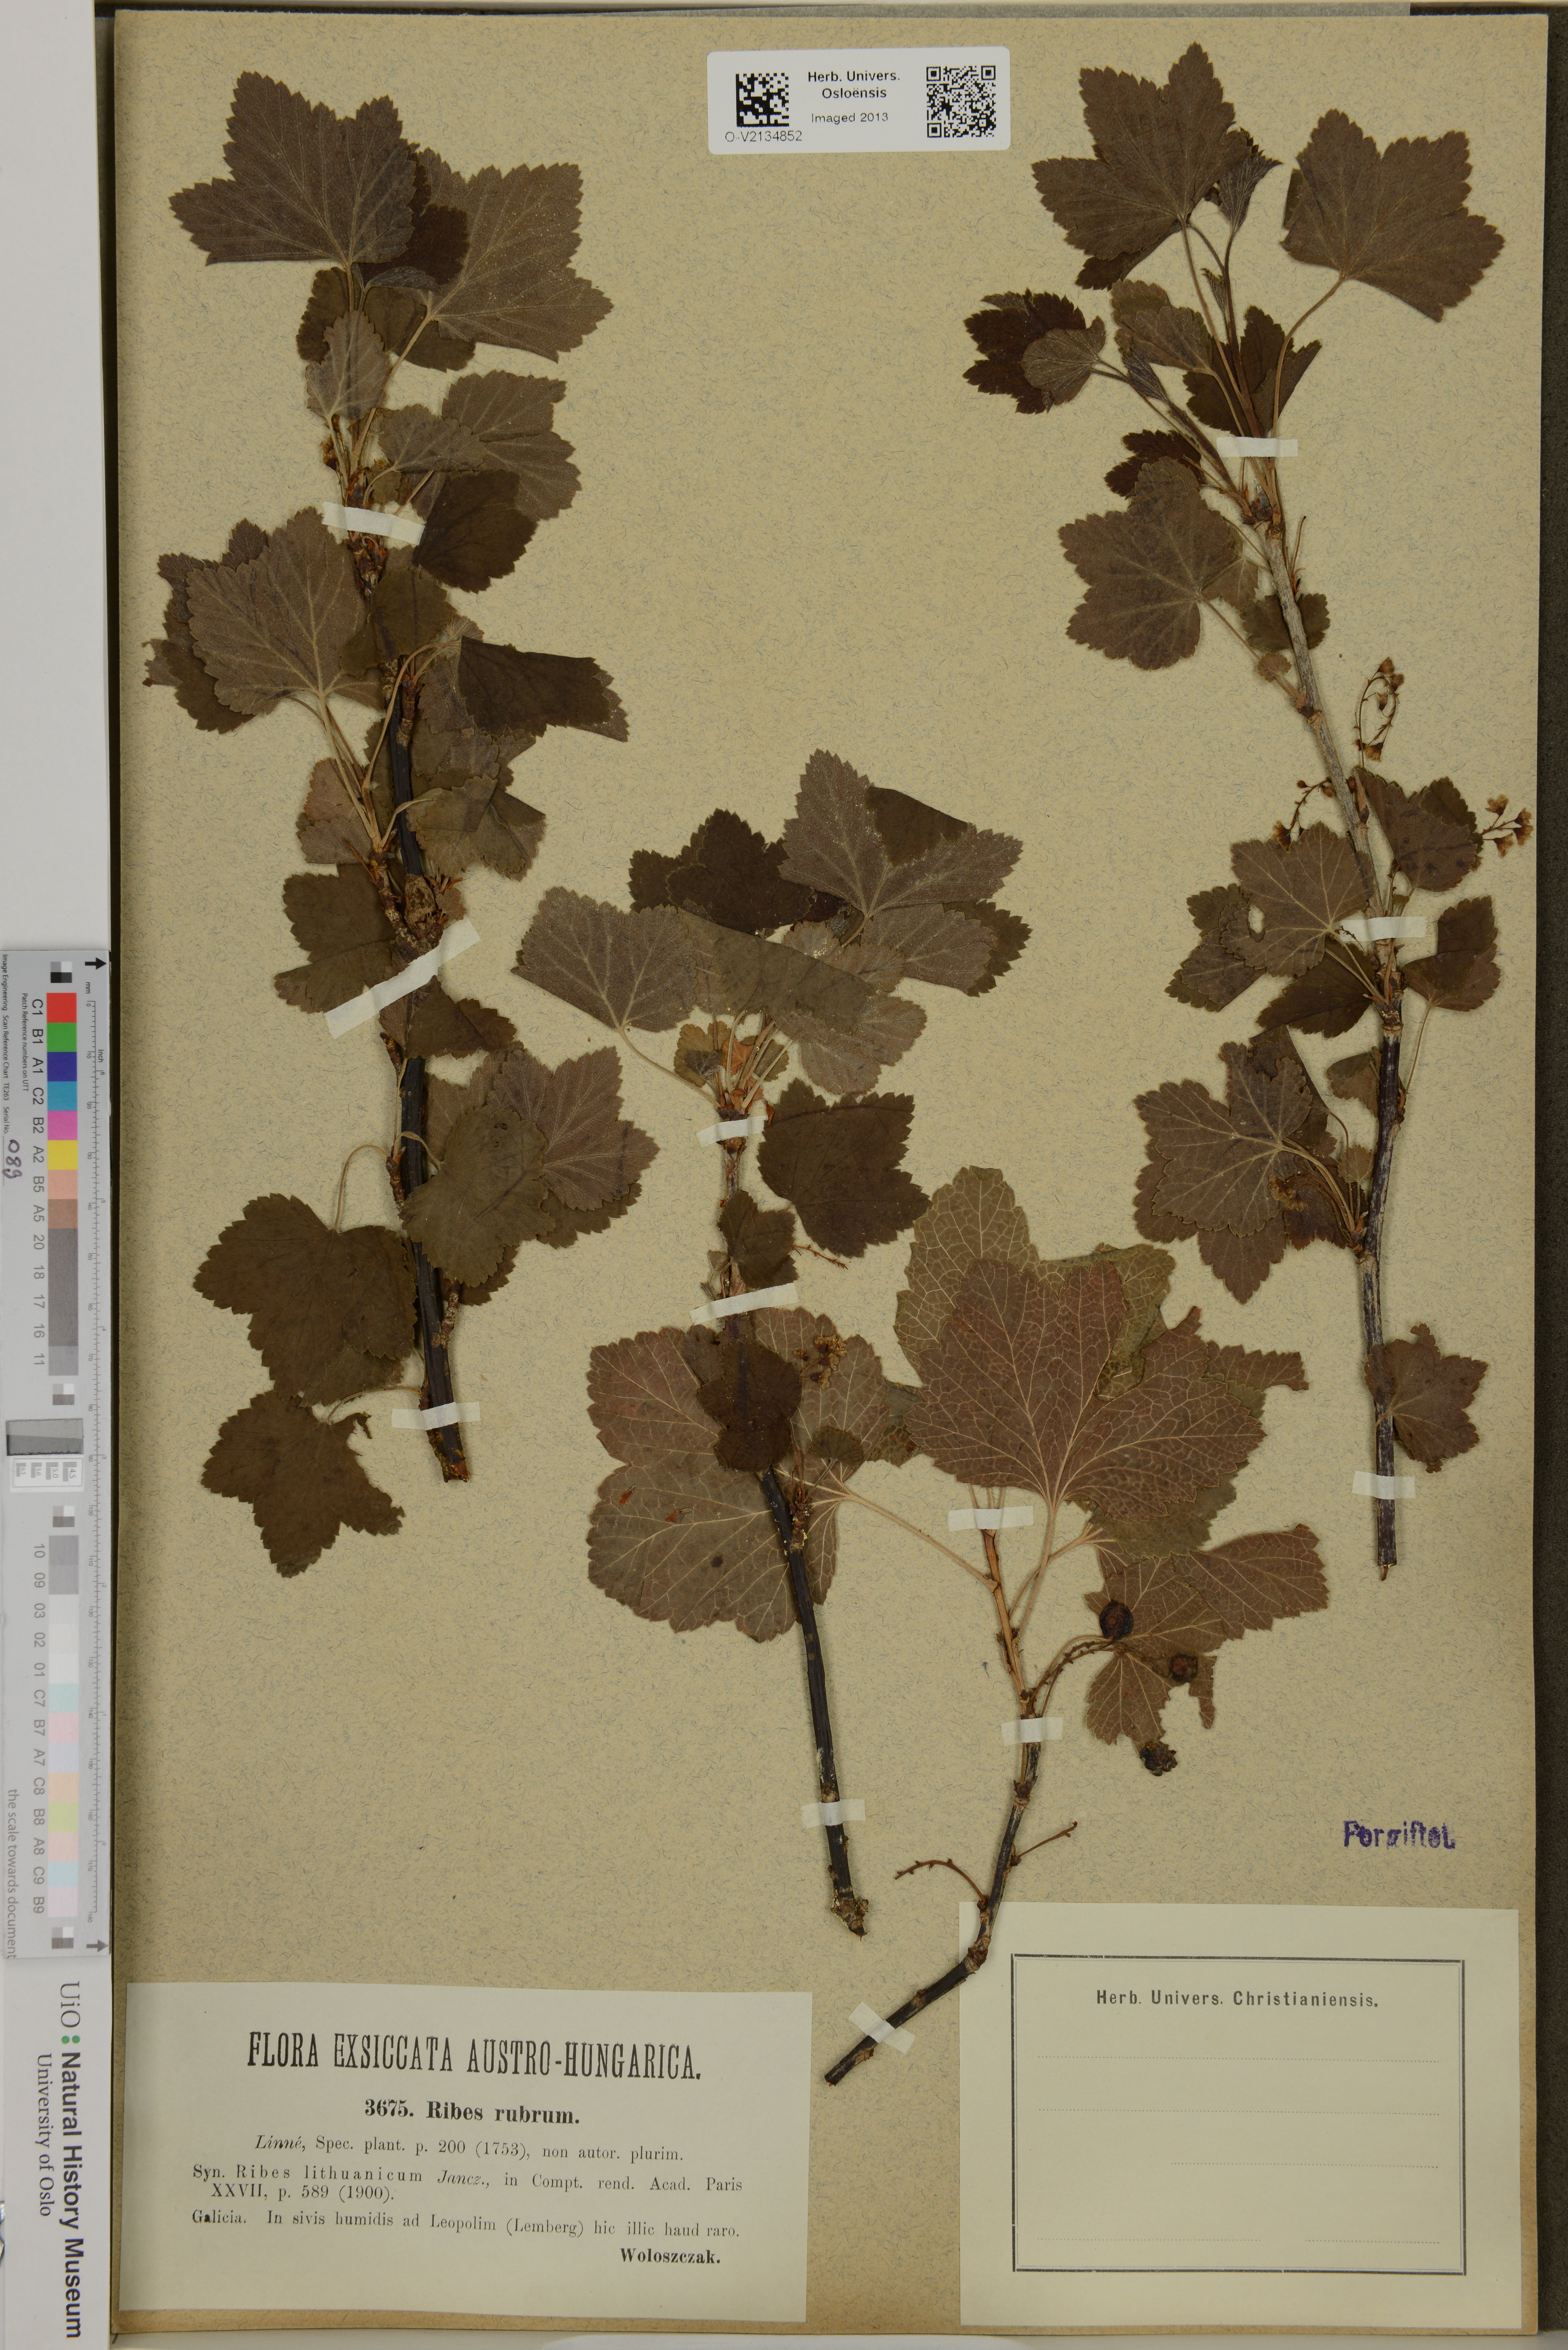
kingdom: Plantae
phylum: Tracheophyta
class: Magnoliopsida
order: Saxifragales
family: Grossulariaceae
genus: Ribes
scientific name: Ribes rubrum
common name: Red currant
